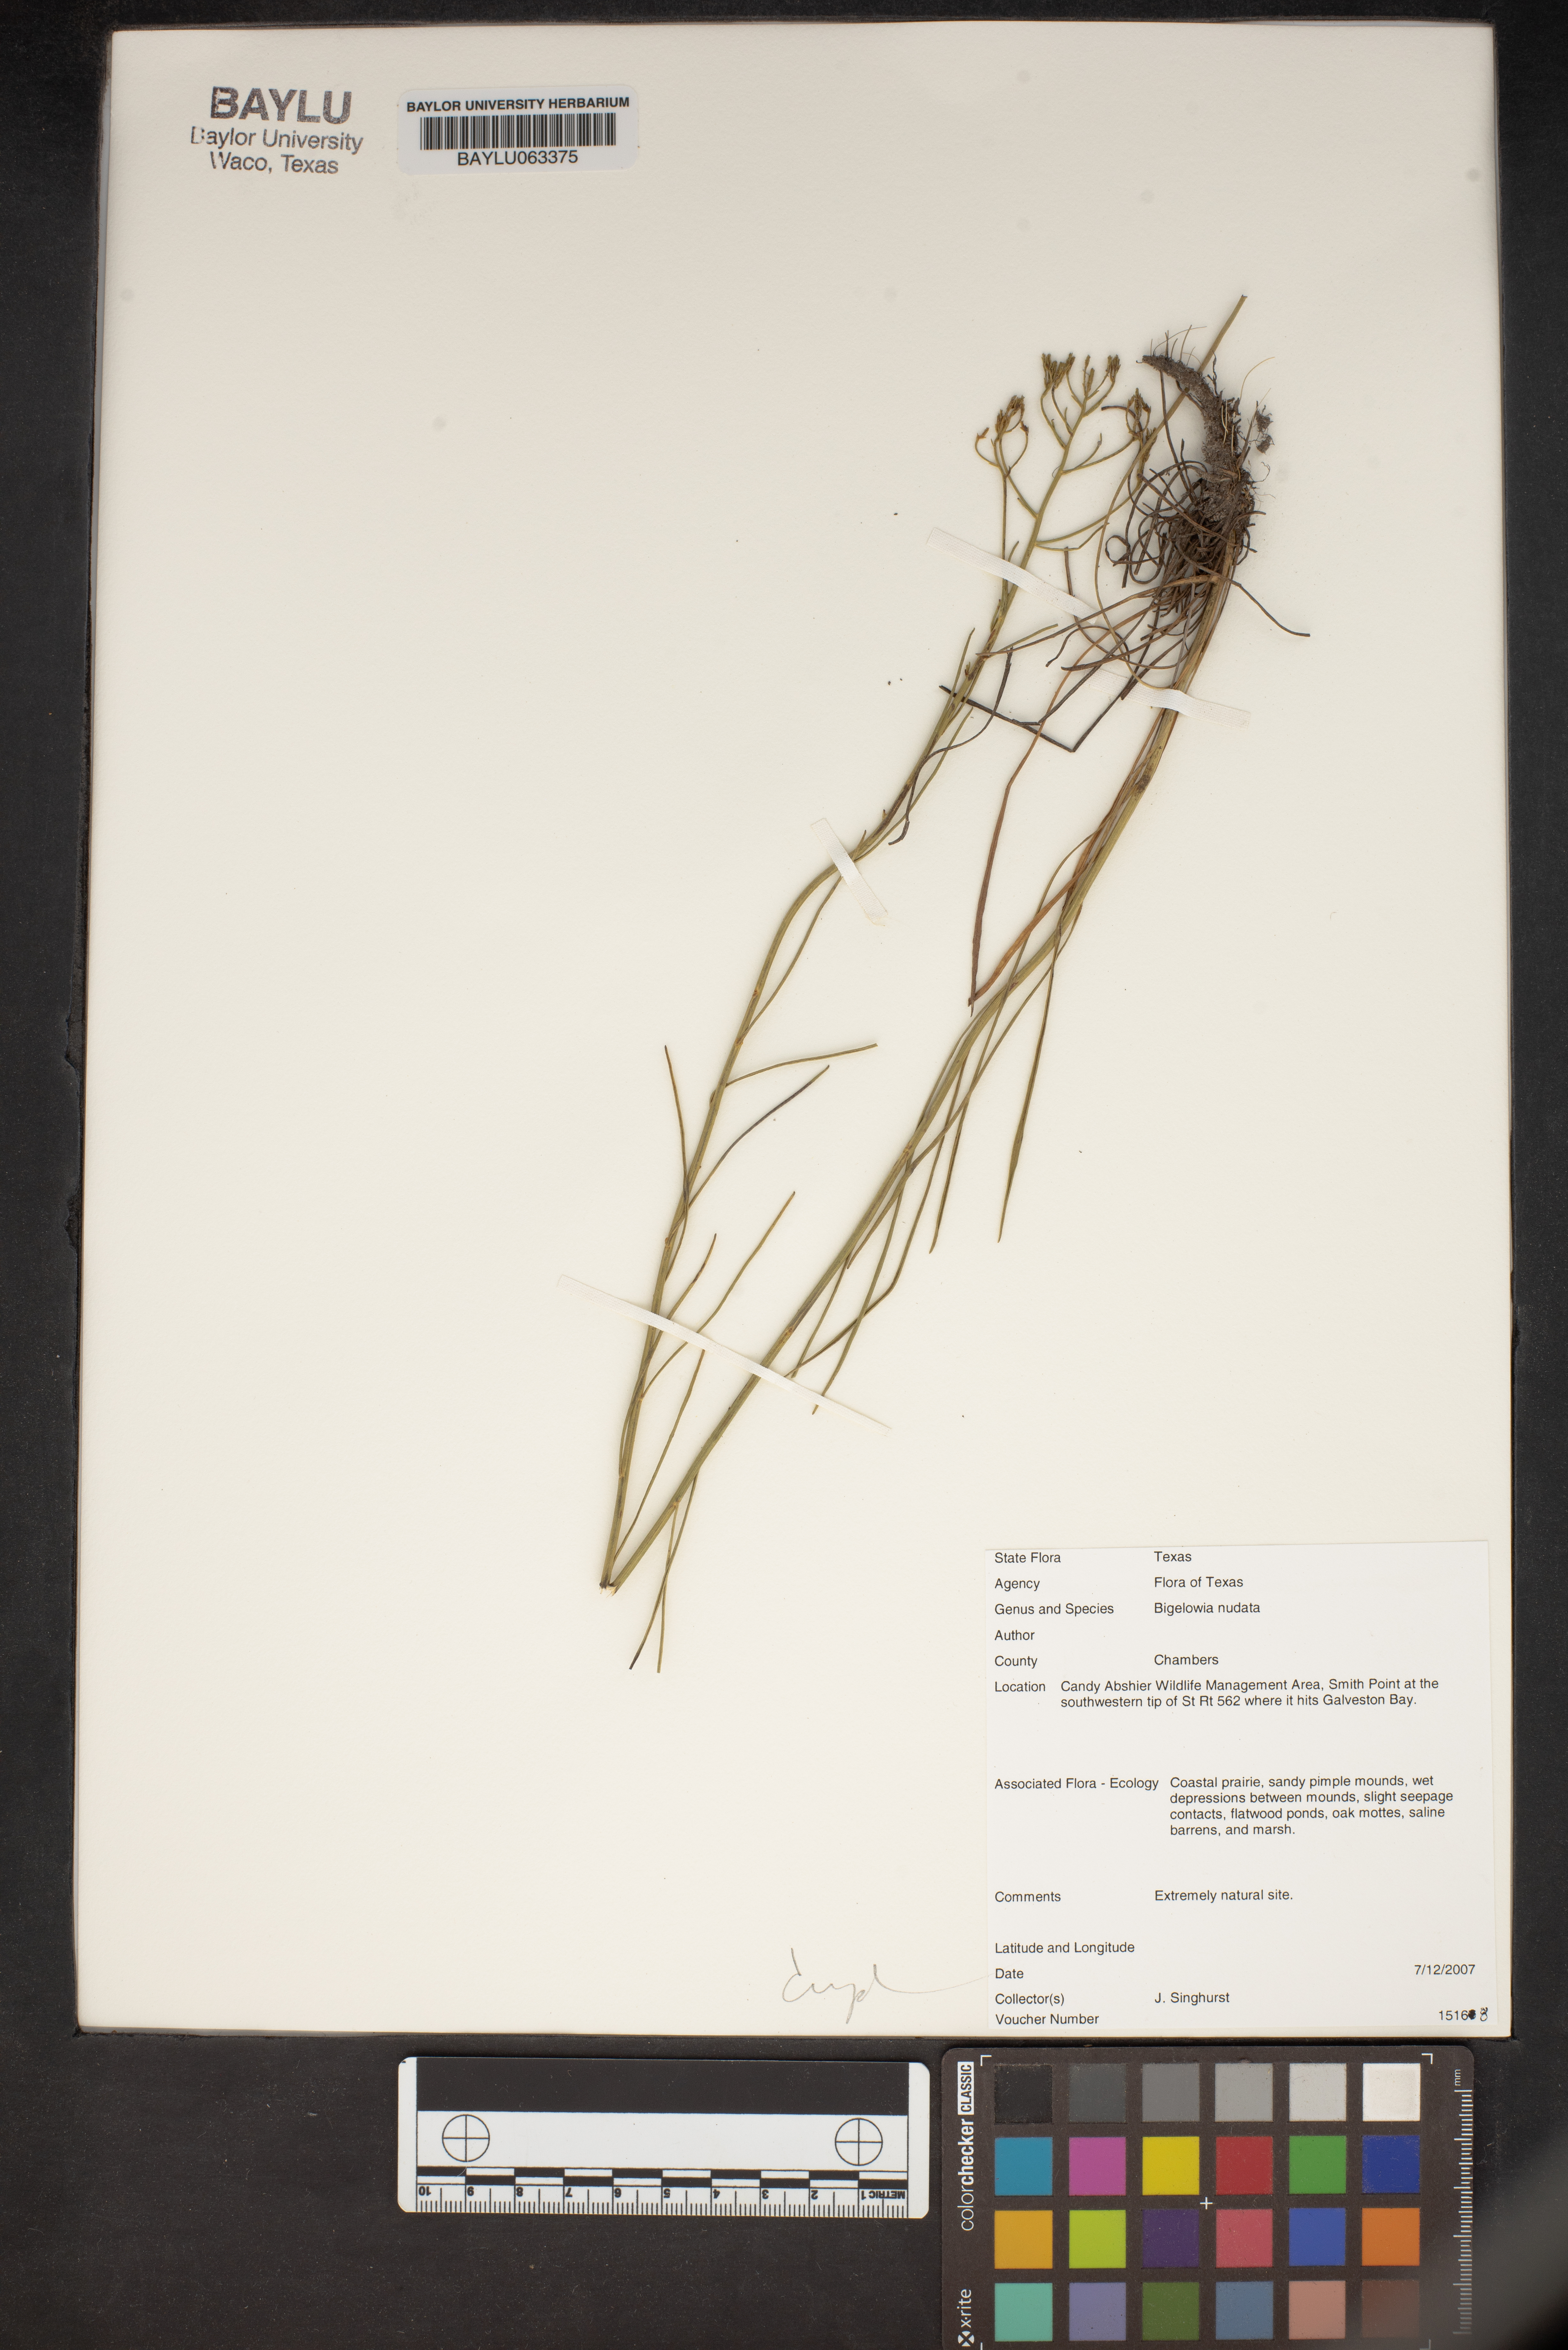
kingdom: Plantae
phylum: Tracheophyta
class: Magnoliopsida
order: Asterales
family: Asteraceae
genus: Bigelowia
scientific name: Bigelowia nudata
